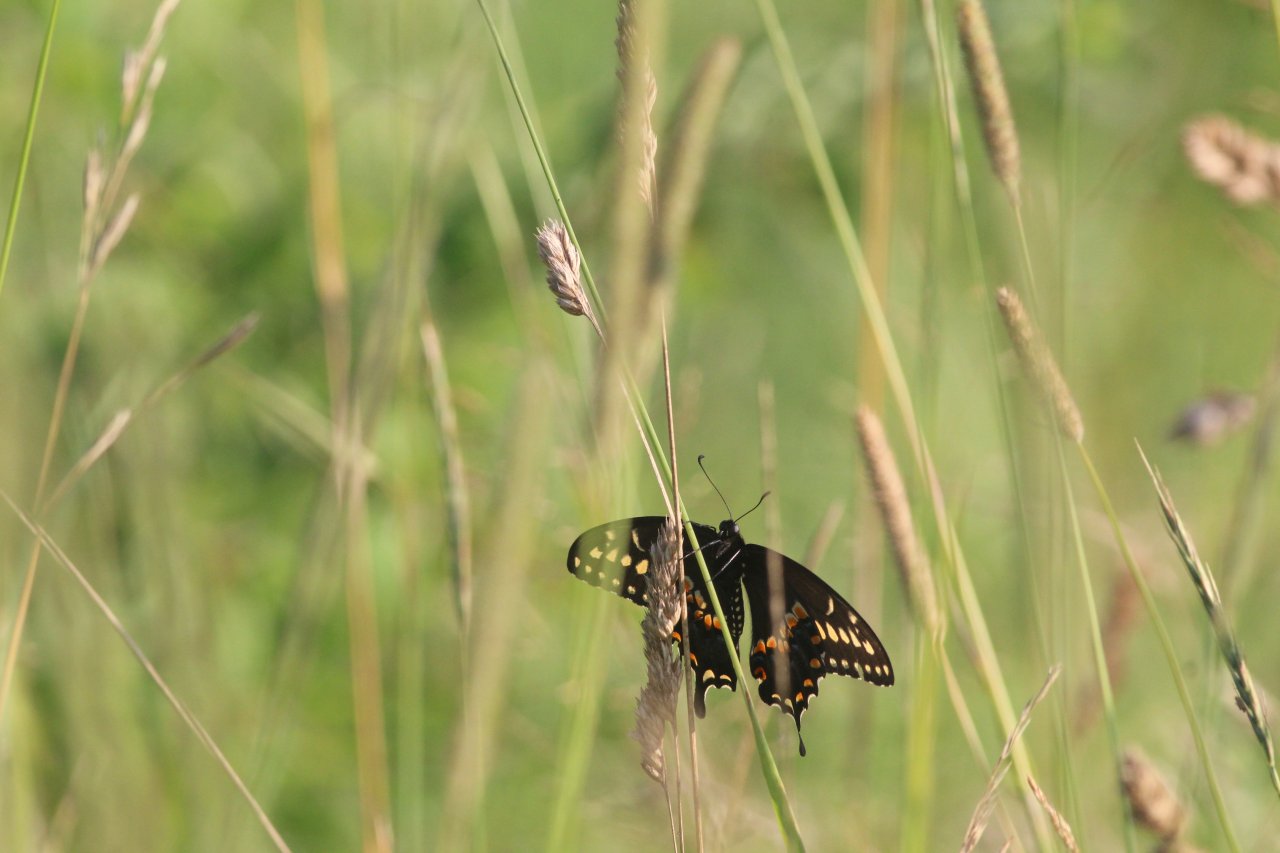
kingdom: Animalia
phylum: Arthropoda
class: Insecta
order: Lepidoptera
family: Papilionidae
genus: Papilio
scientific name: Papilio polyxenes
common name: Black Swallowtail
